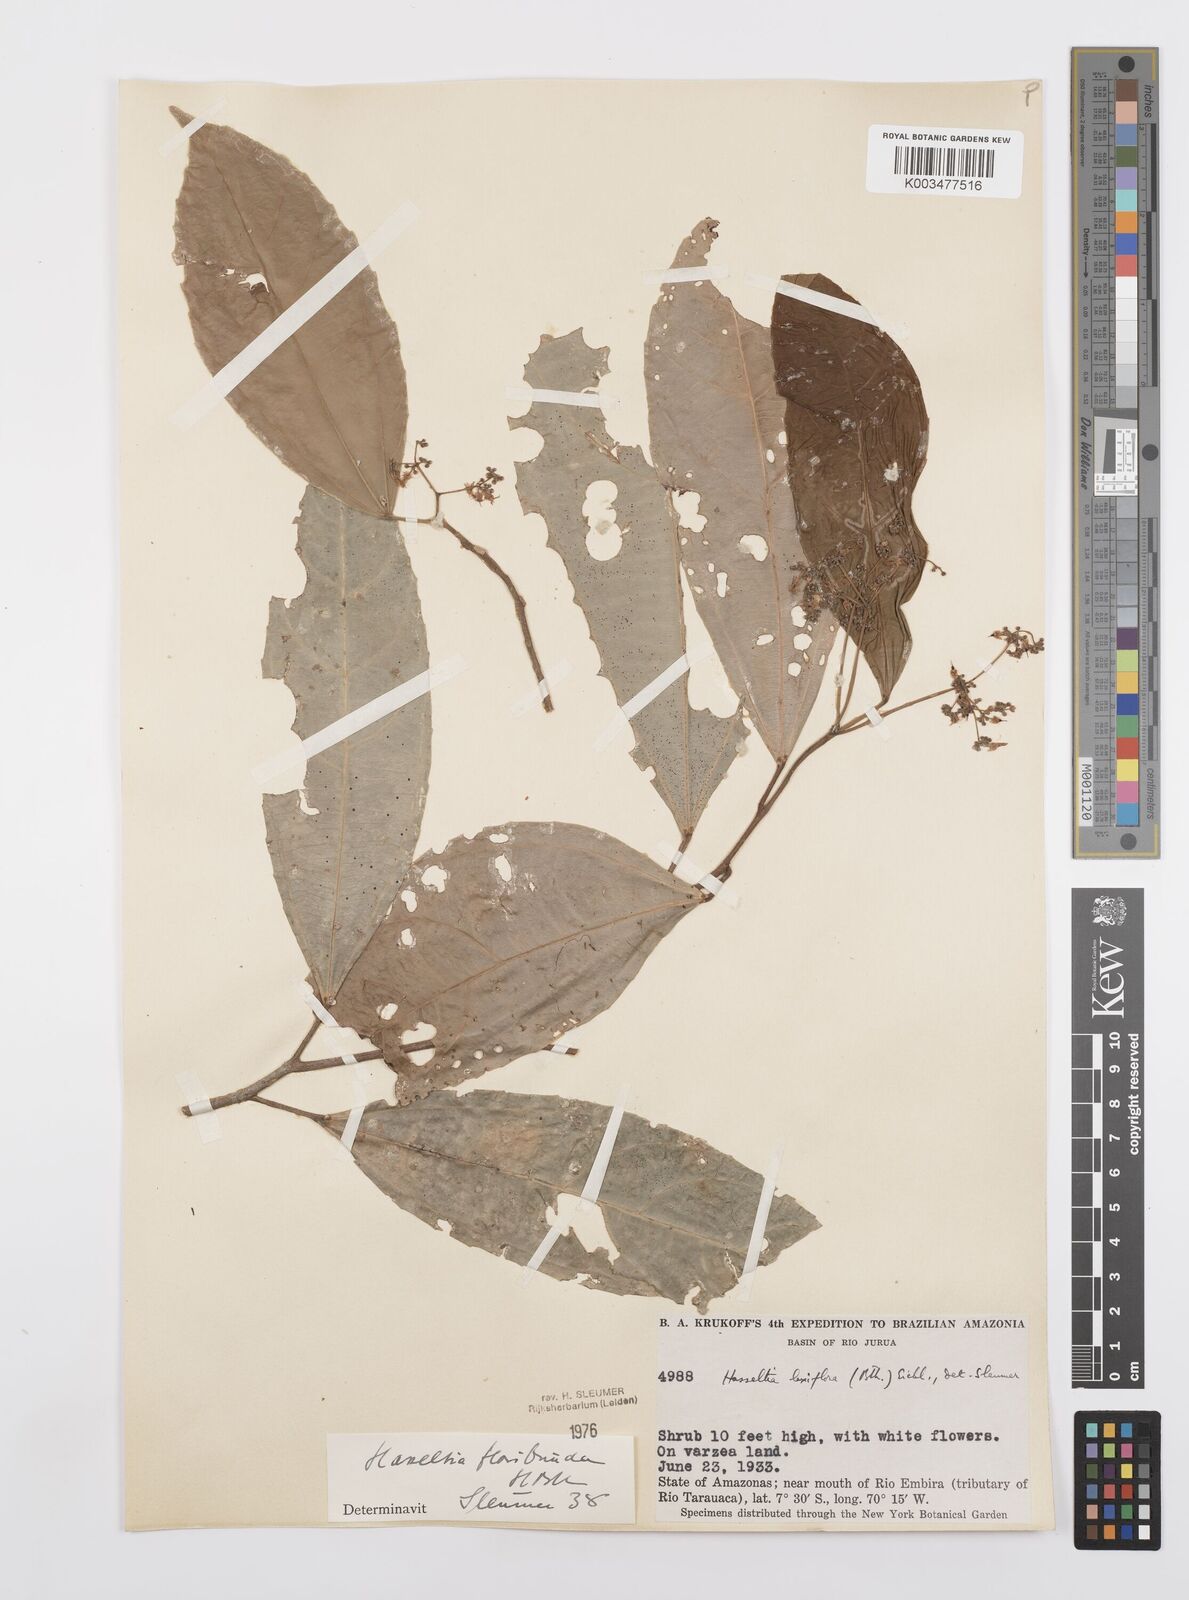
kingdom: Plantae
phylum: Tracheophyta
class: Magnoliopsida
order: Malpighiales
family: Salicaceae
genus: Hasseltia
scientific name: Hasseltia floribunda
